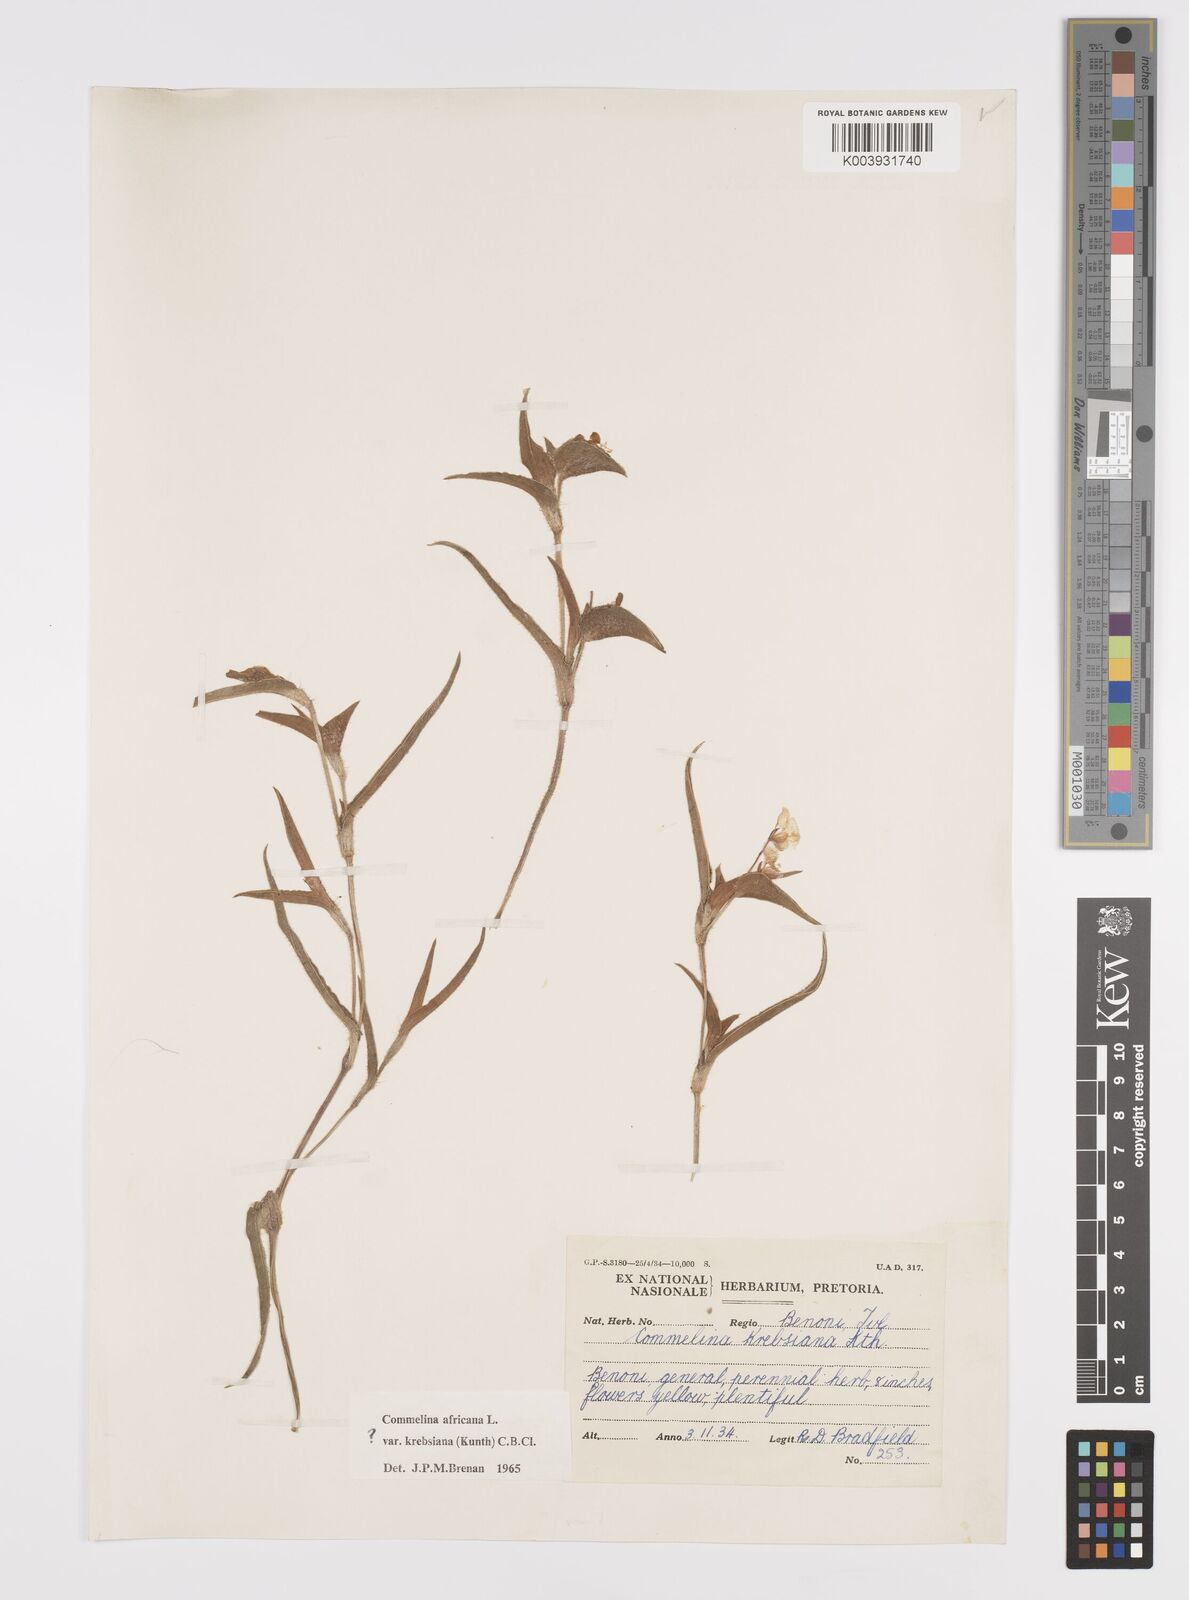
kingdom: Plantae
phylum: Tracheophyta
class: Liliopsida
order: Commelinales
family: Commelinaceae
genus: Commelina
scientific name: Commelina africana
